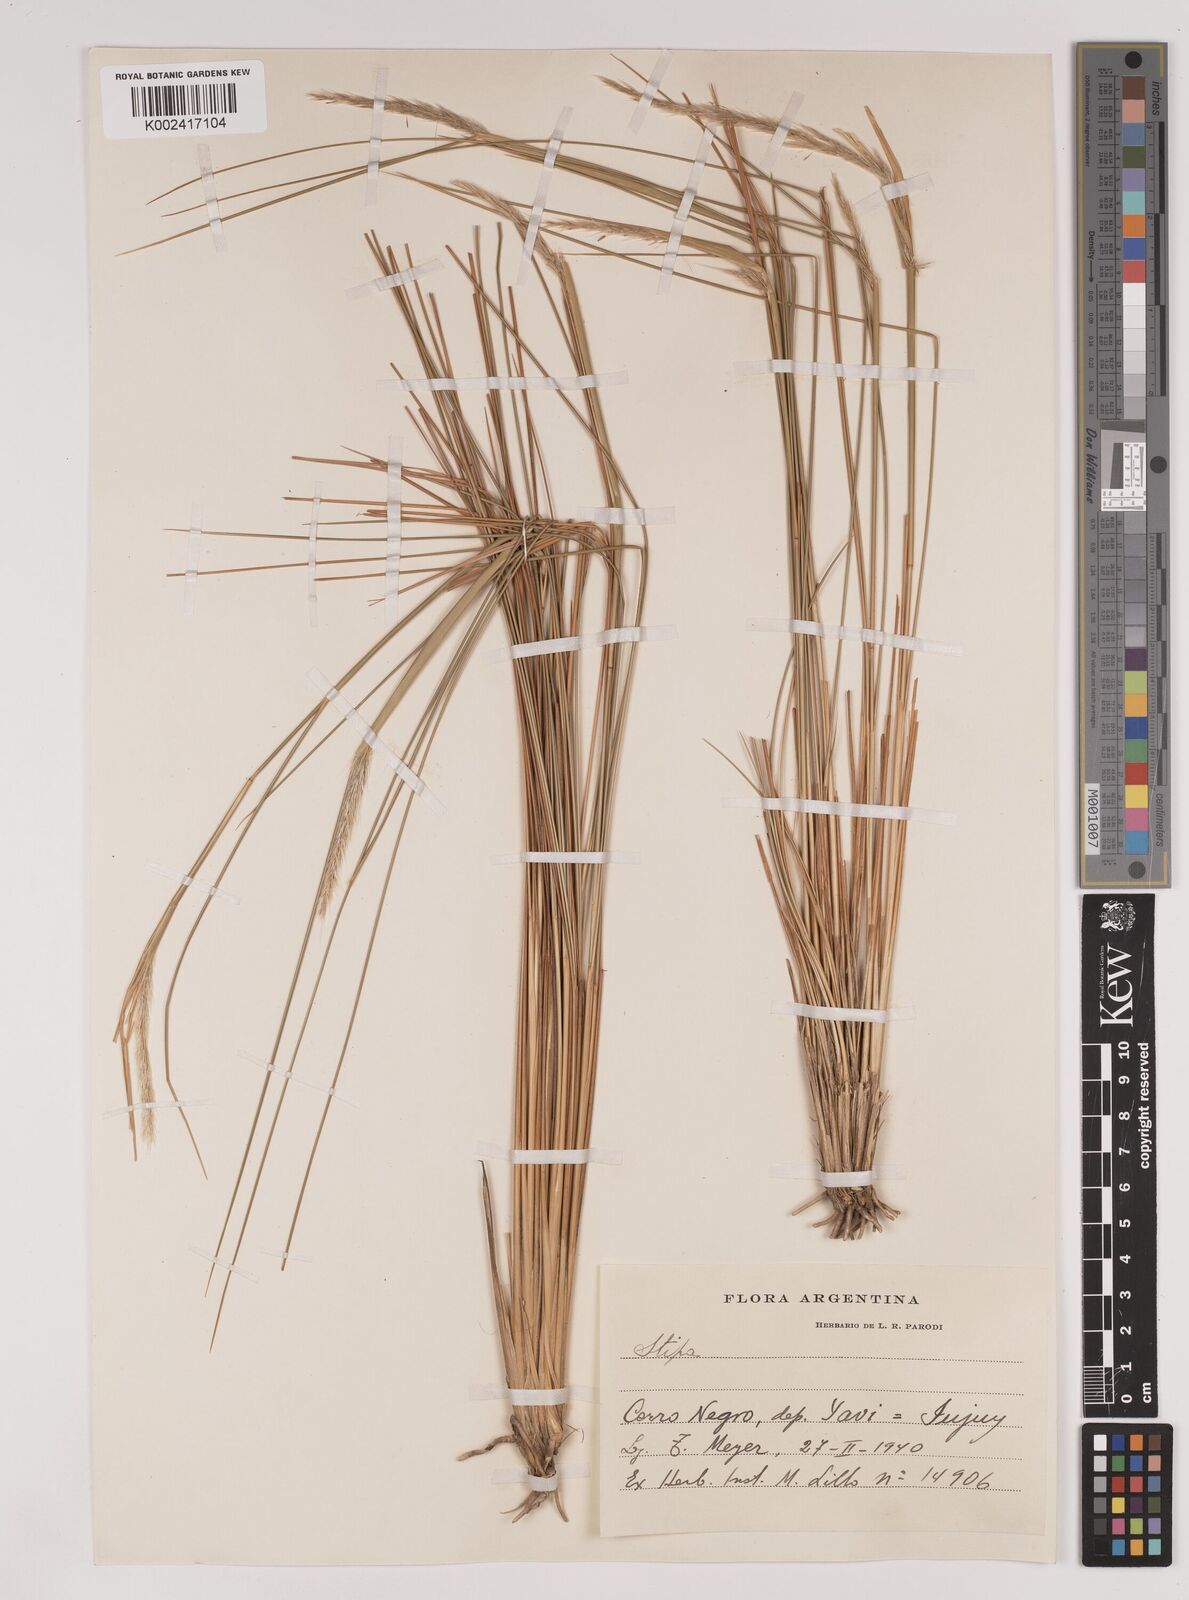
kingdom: Plantae
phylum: Tracheophyta
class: Liliopsida
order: Poales
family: Poaceae
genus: Stipa
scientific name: Stipa
